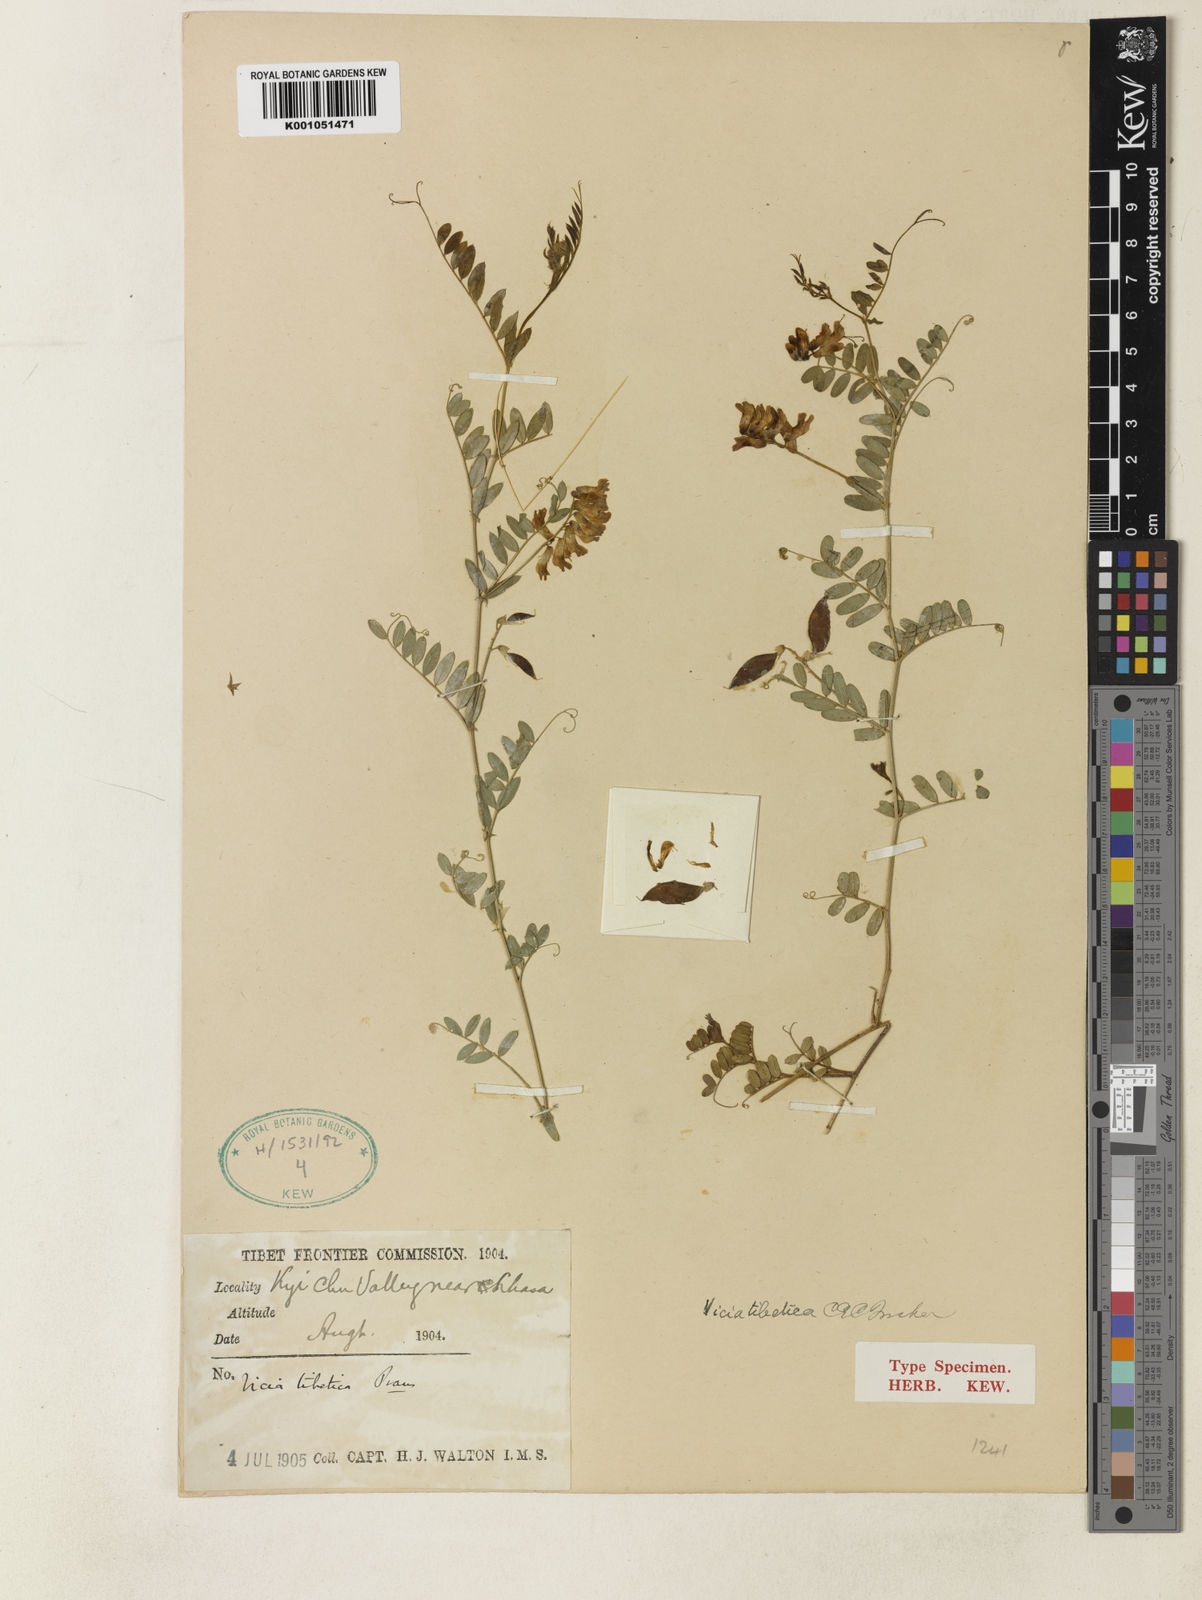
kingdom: Plantae
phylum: Tracheophyta
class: Magnoliopsida
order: Fabales
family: Fabaceae
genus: Vicia
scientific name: Vicia tibetica
